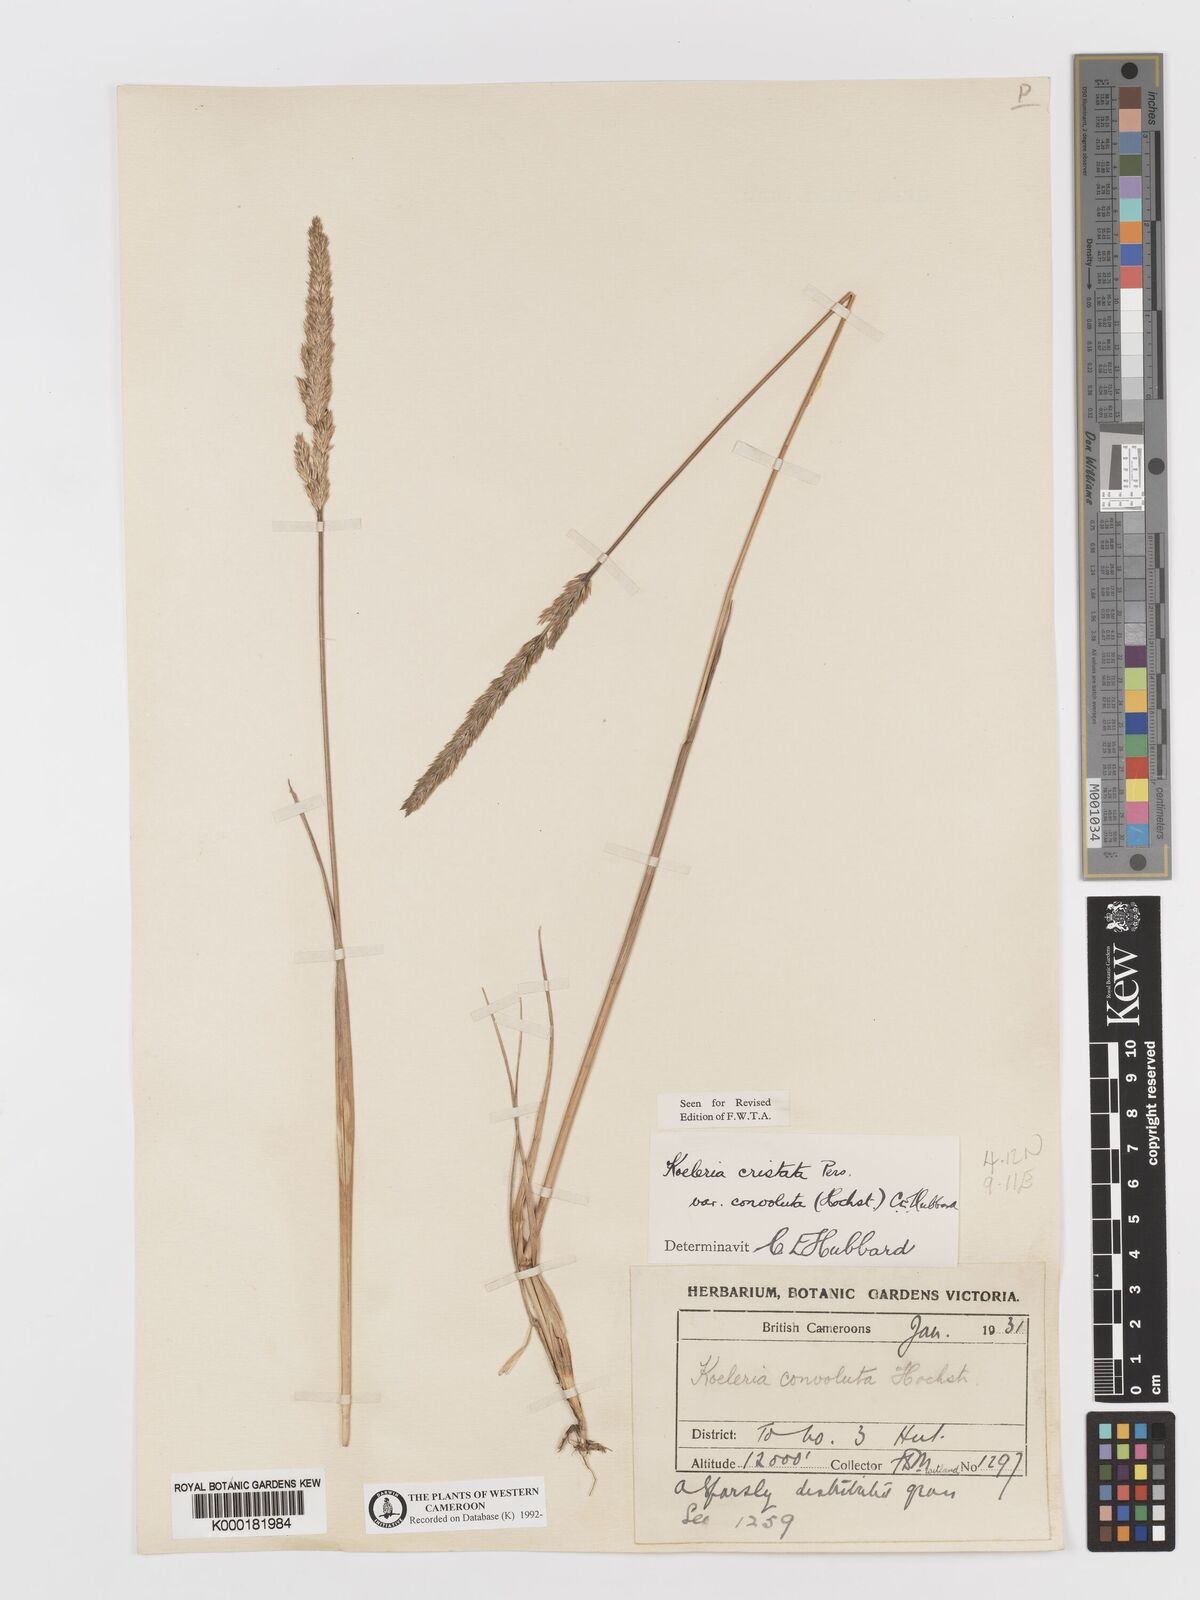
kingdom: Plantae
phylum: Tracheophyta
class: Liliopsida
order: Poales
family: Poaceae
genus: Koeleria
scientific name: Koeleria capensis
